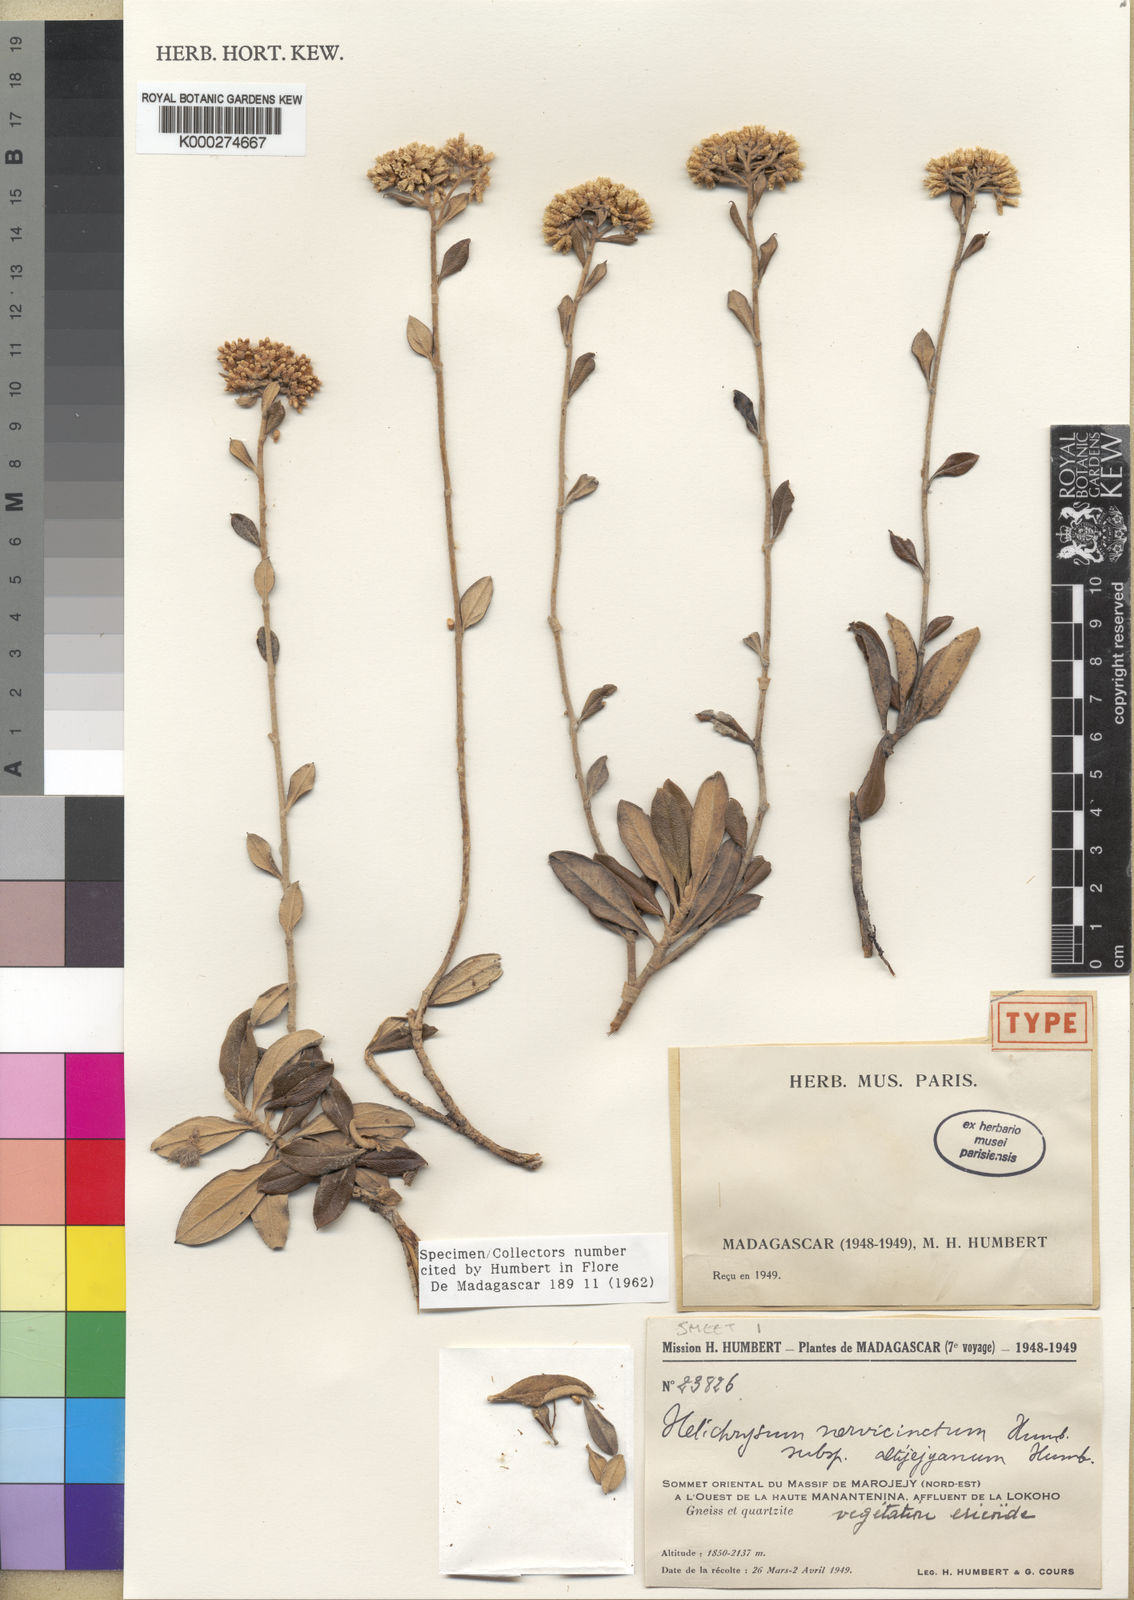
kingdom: Plantae
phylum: Tracheophyta
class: Magnoliopsida
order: Asterales
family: Asteraceae
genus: Helichrysum
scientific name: Helichrysum nervicinctum
